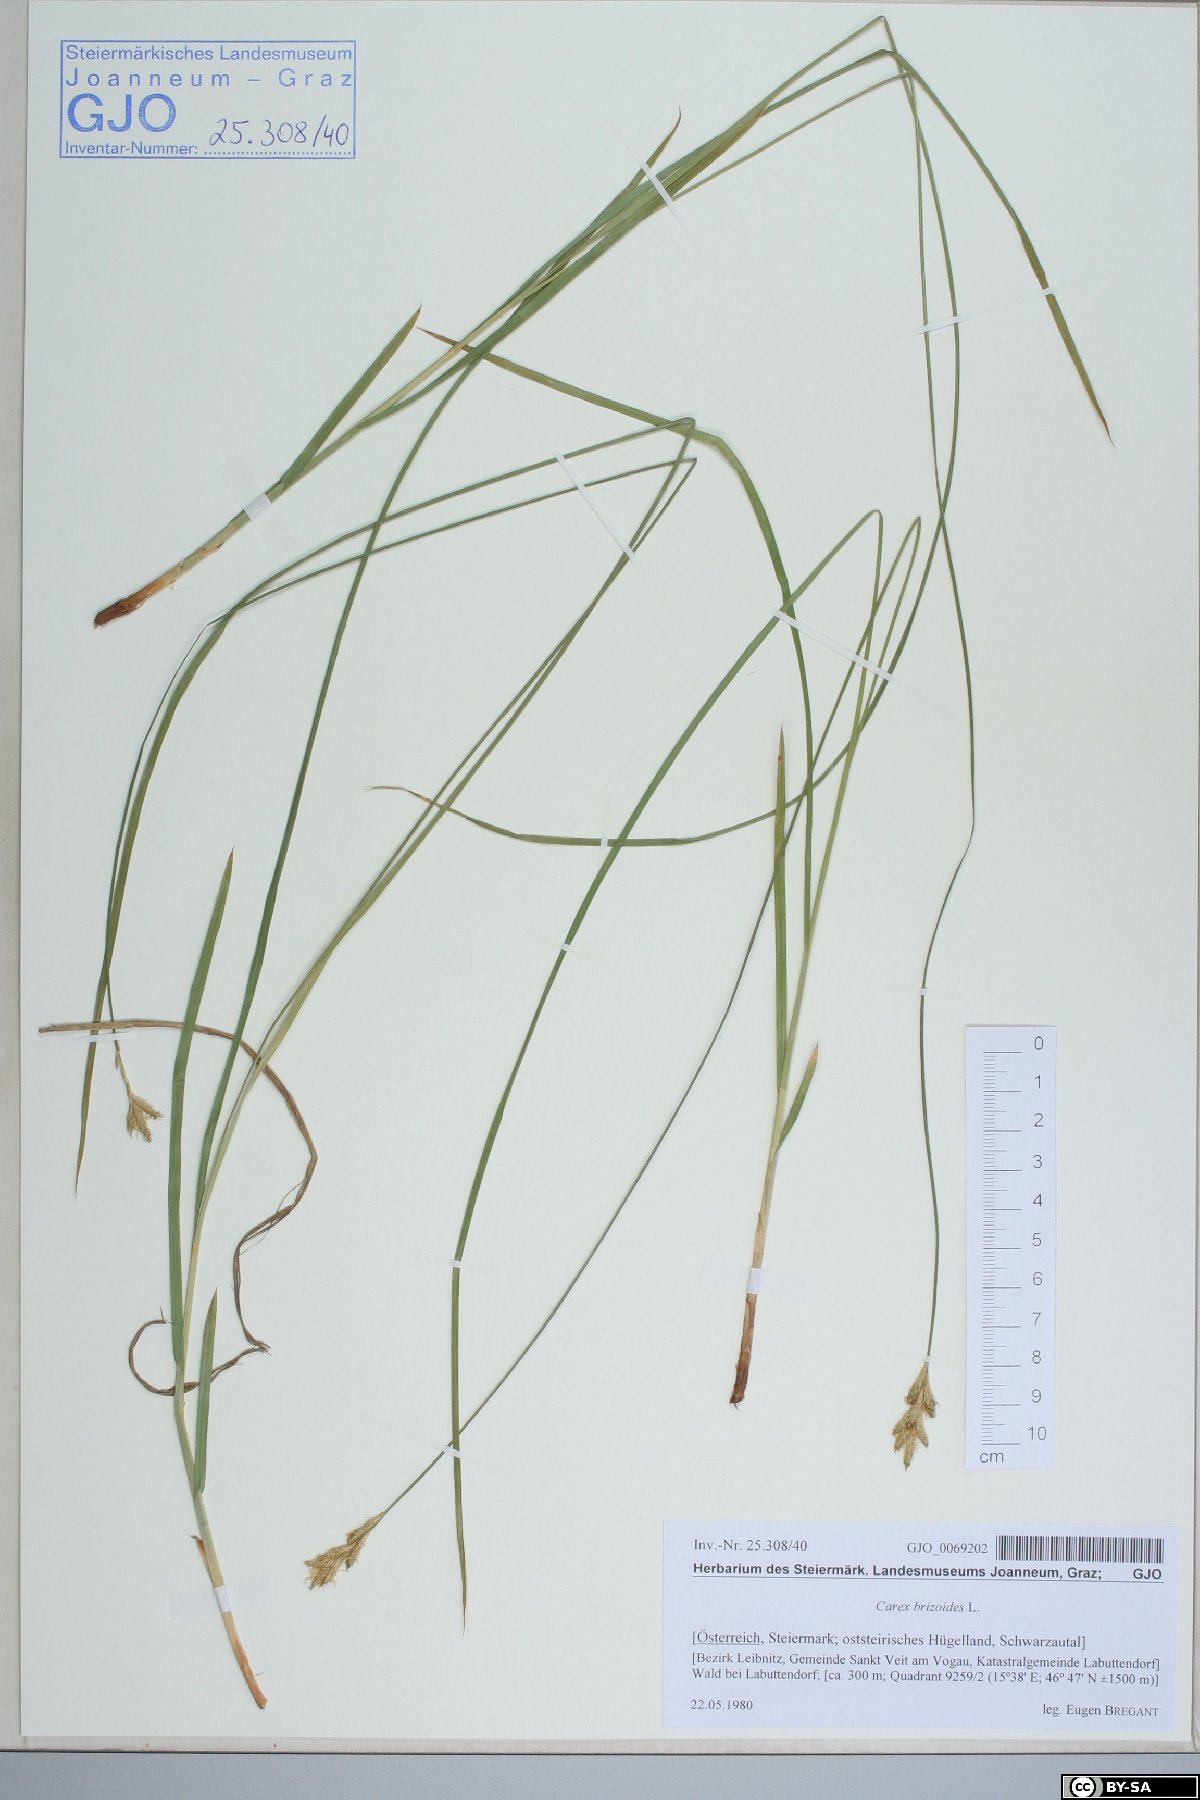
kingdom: Plantae
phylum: Tracheophyta
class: Liliopsida
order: Poales
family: Cyperaceae
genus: Carex
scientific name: Carex brizoides
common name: Quaking-grass sedge
